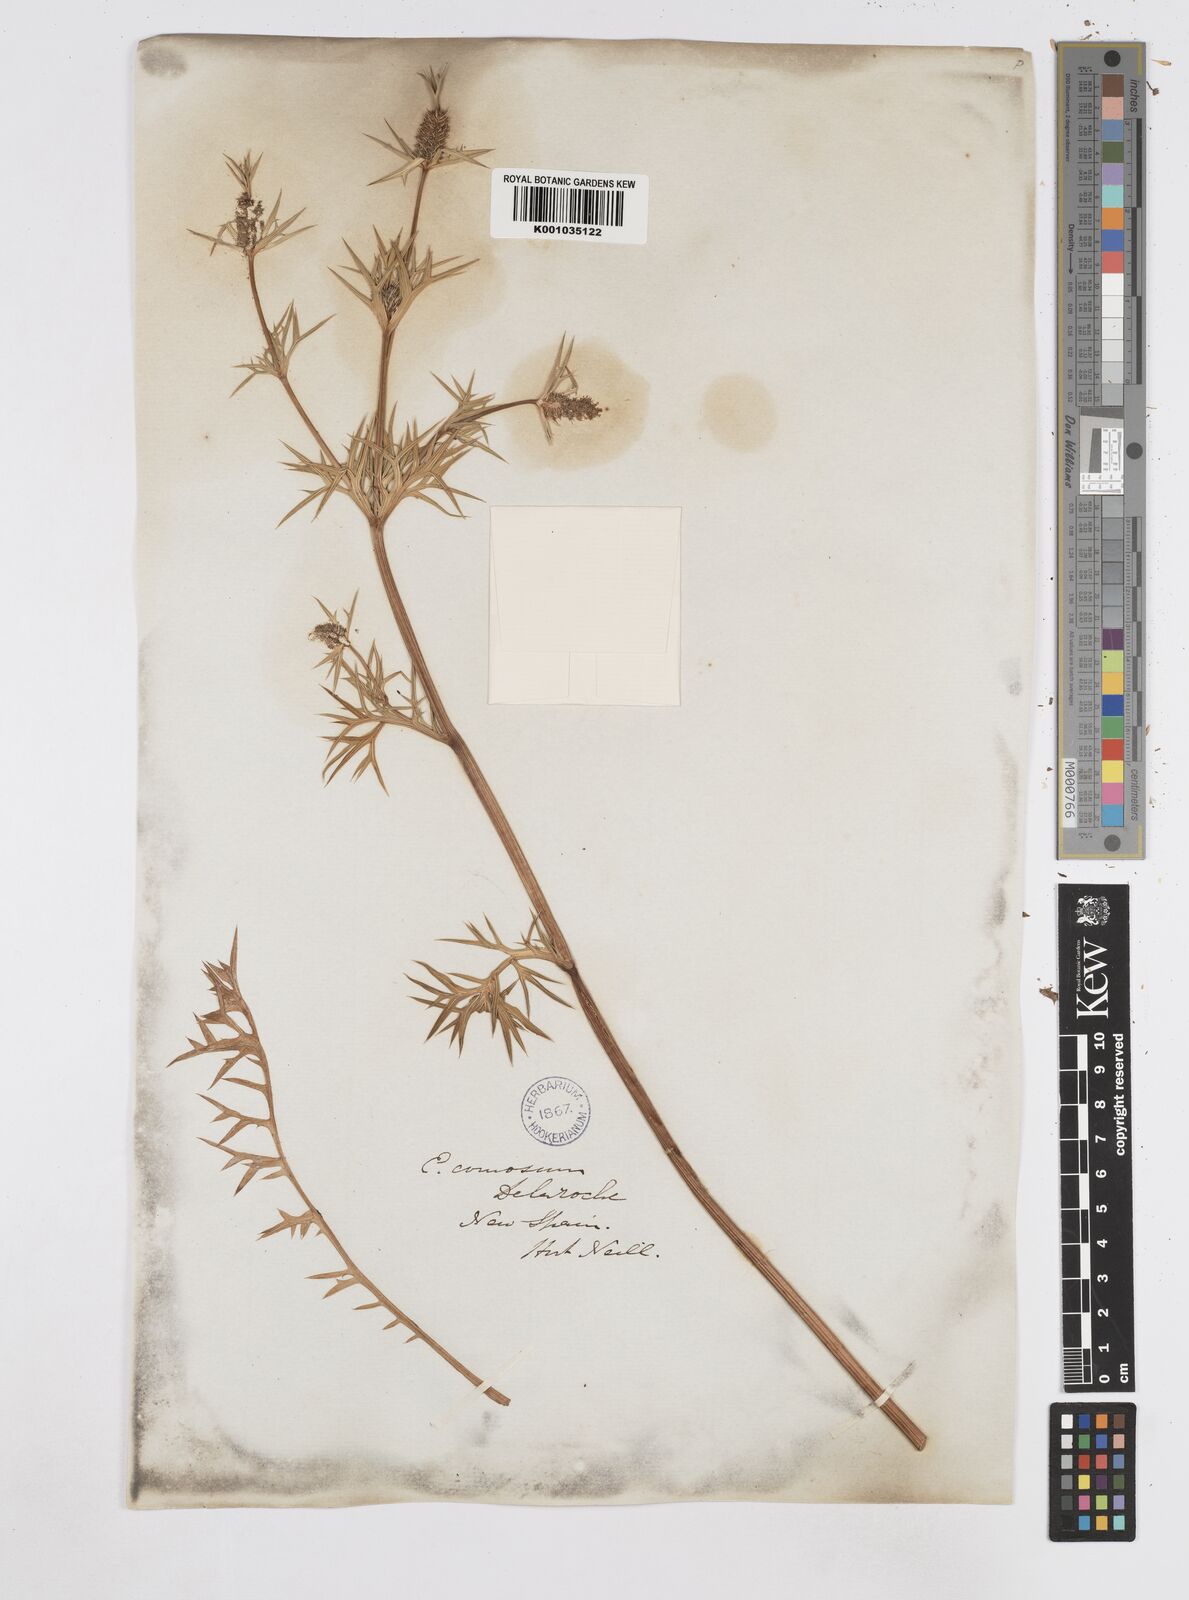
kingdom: Plantae
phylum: Tracheophyta
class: Magnoliopsida
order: Apiales
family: Apiaceae
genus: Eryngium
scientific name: Eryngium comosum
